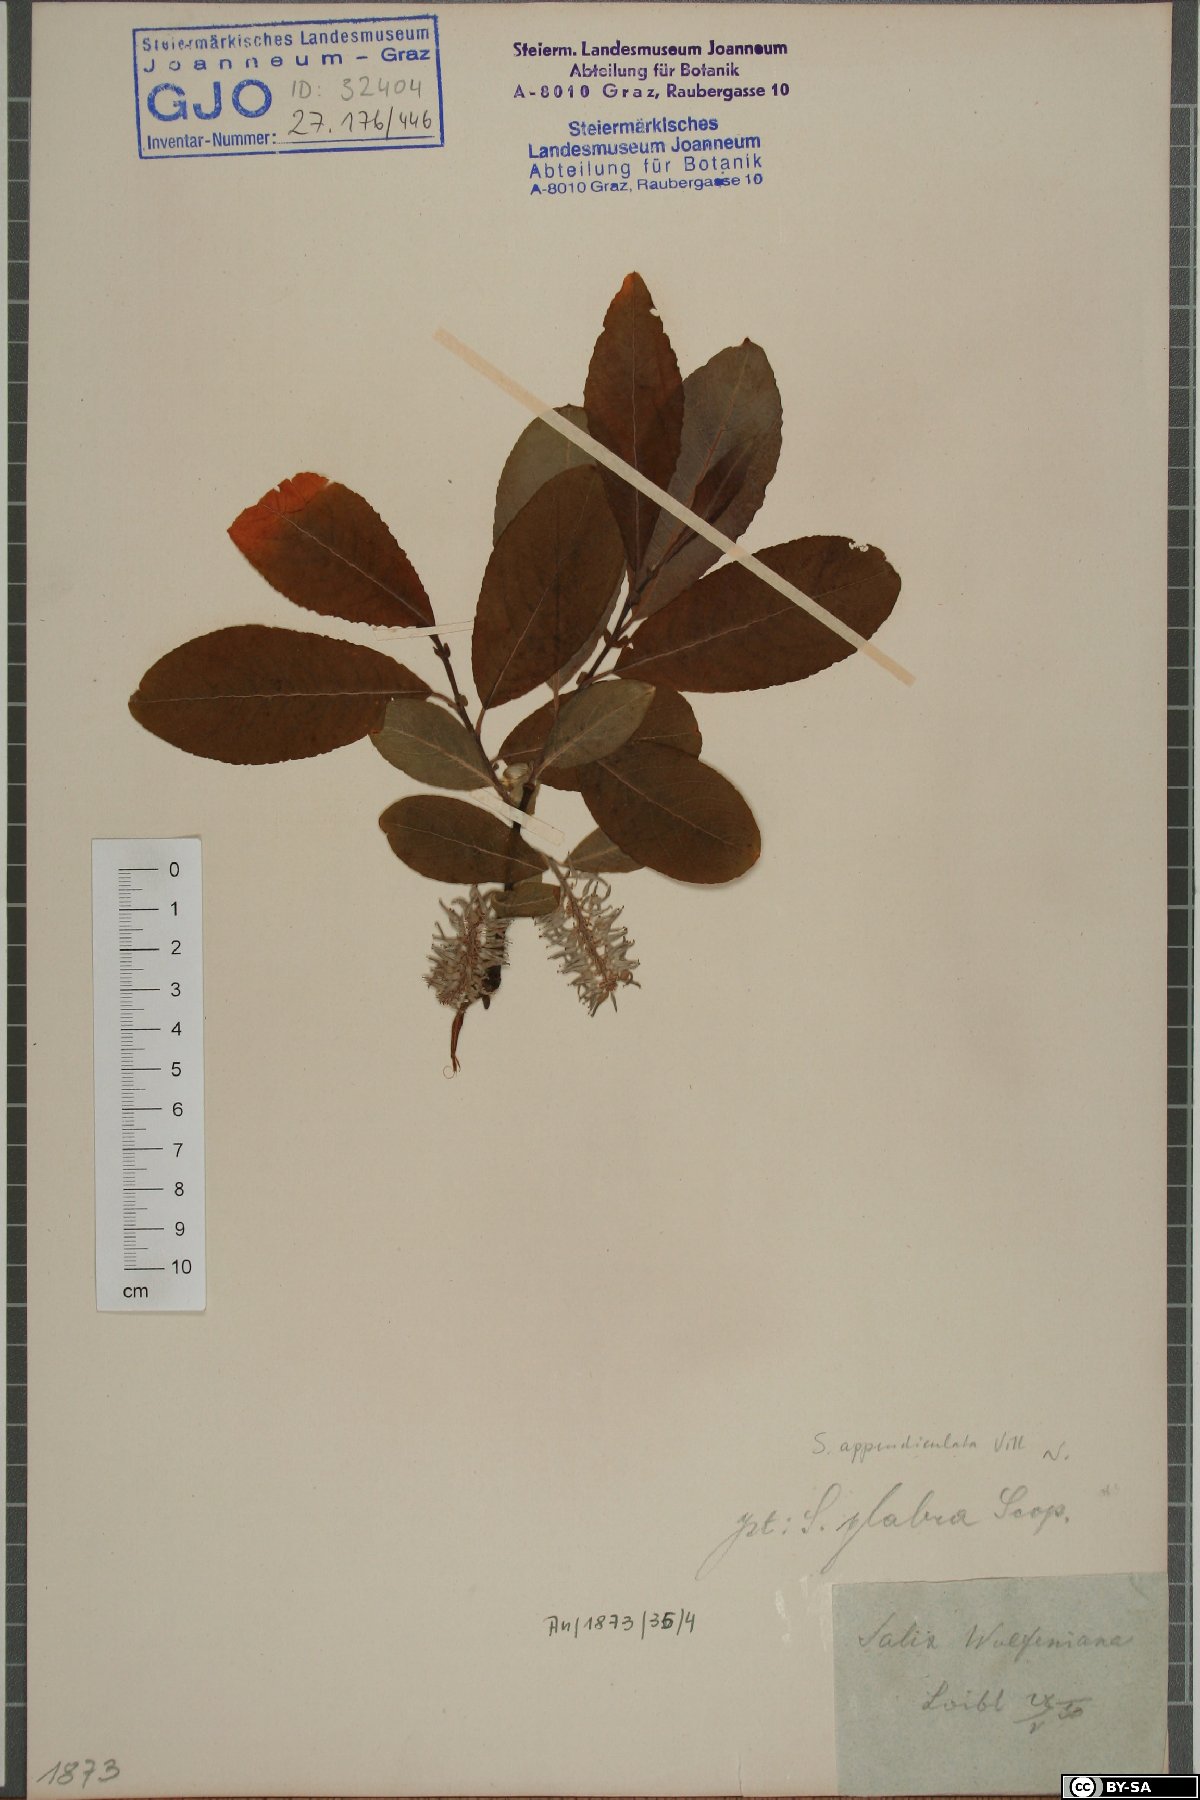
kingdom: Plantae
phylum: Tracheophyta
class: Magnoliopsida
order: Malpighiales
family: Salicaceae
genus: Salix
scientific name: Salix glabra
